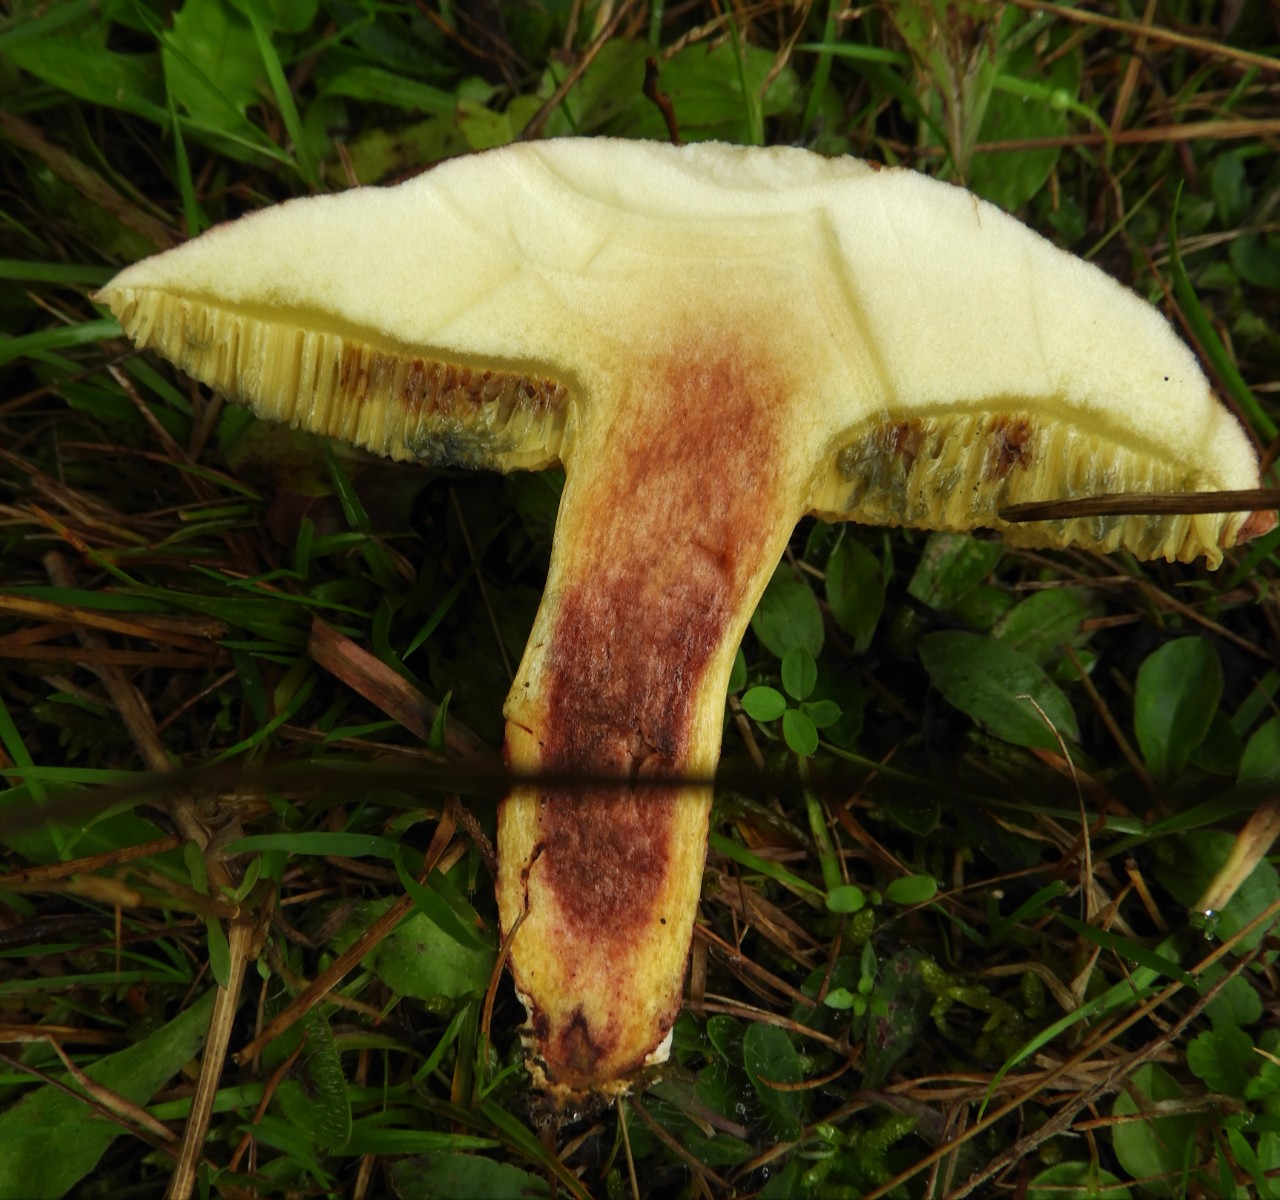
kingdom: Fungi
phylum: Basidiomycota
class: Agaricomycetes
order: Boletales
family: Boletaceae
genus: Xerocomellus
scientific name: Xerocomellus chrysenteron
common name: rødsprukken rørhat
